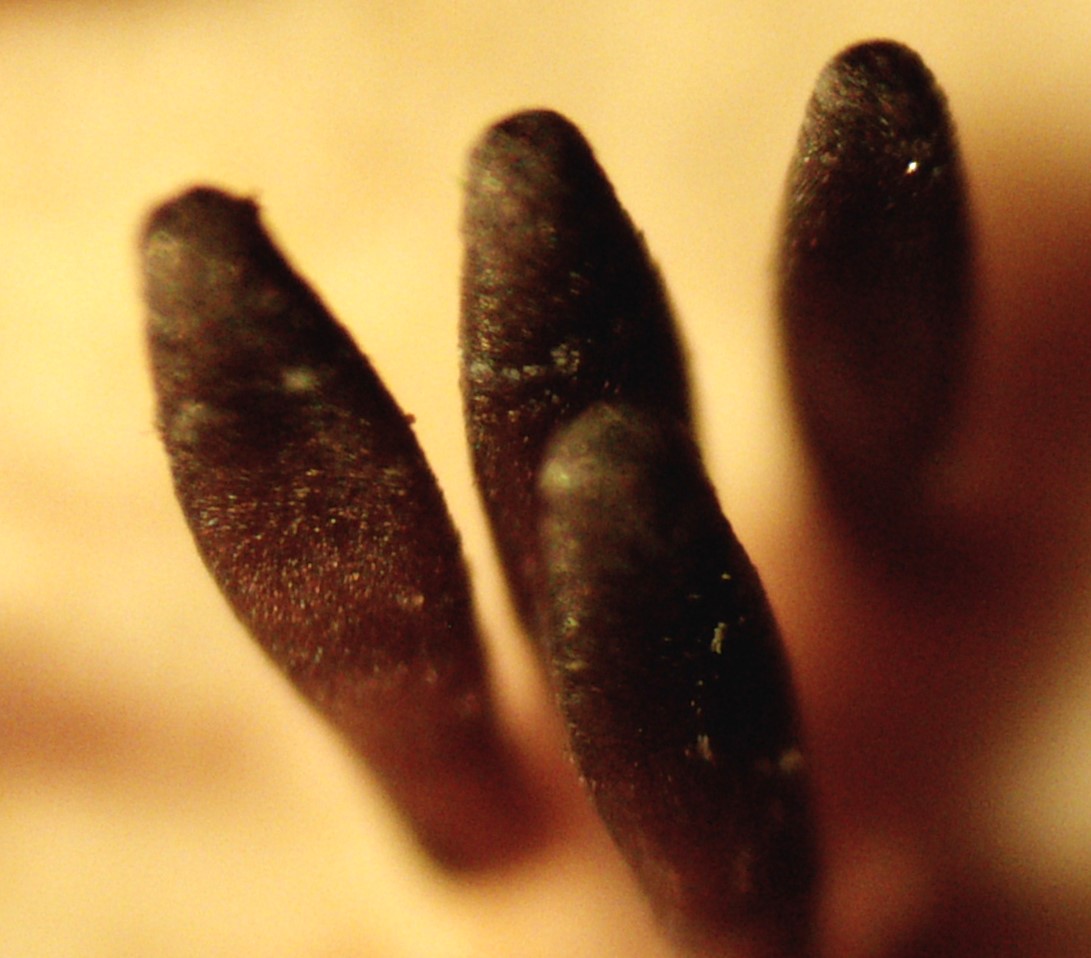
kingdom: Fungi
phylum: Ascomycota
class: Dothideomycetes
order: Acrospermales
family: Acrospermaceae
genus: Acrospermum
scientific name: Acrospermum compressum
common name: nælde-stængeltunge
